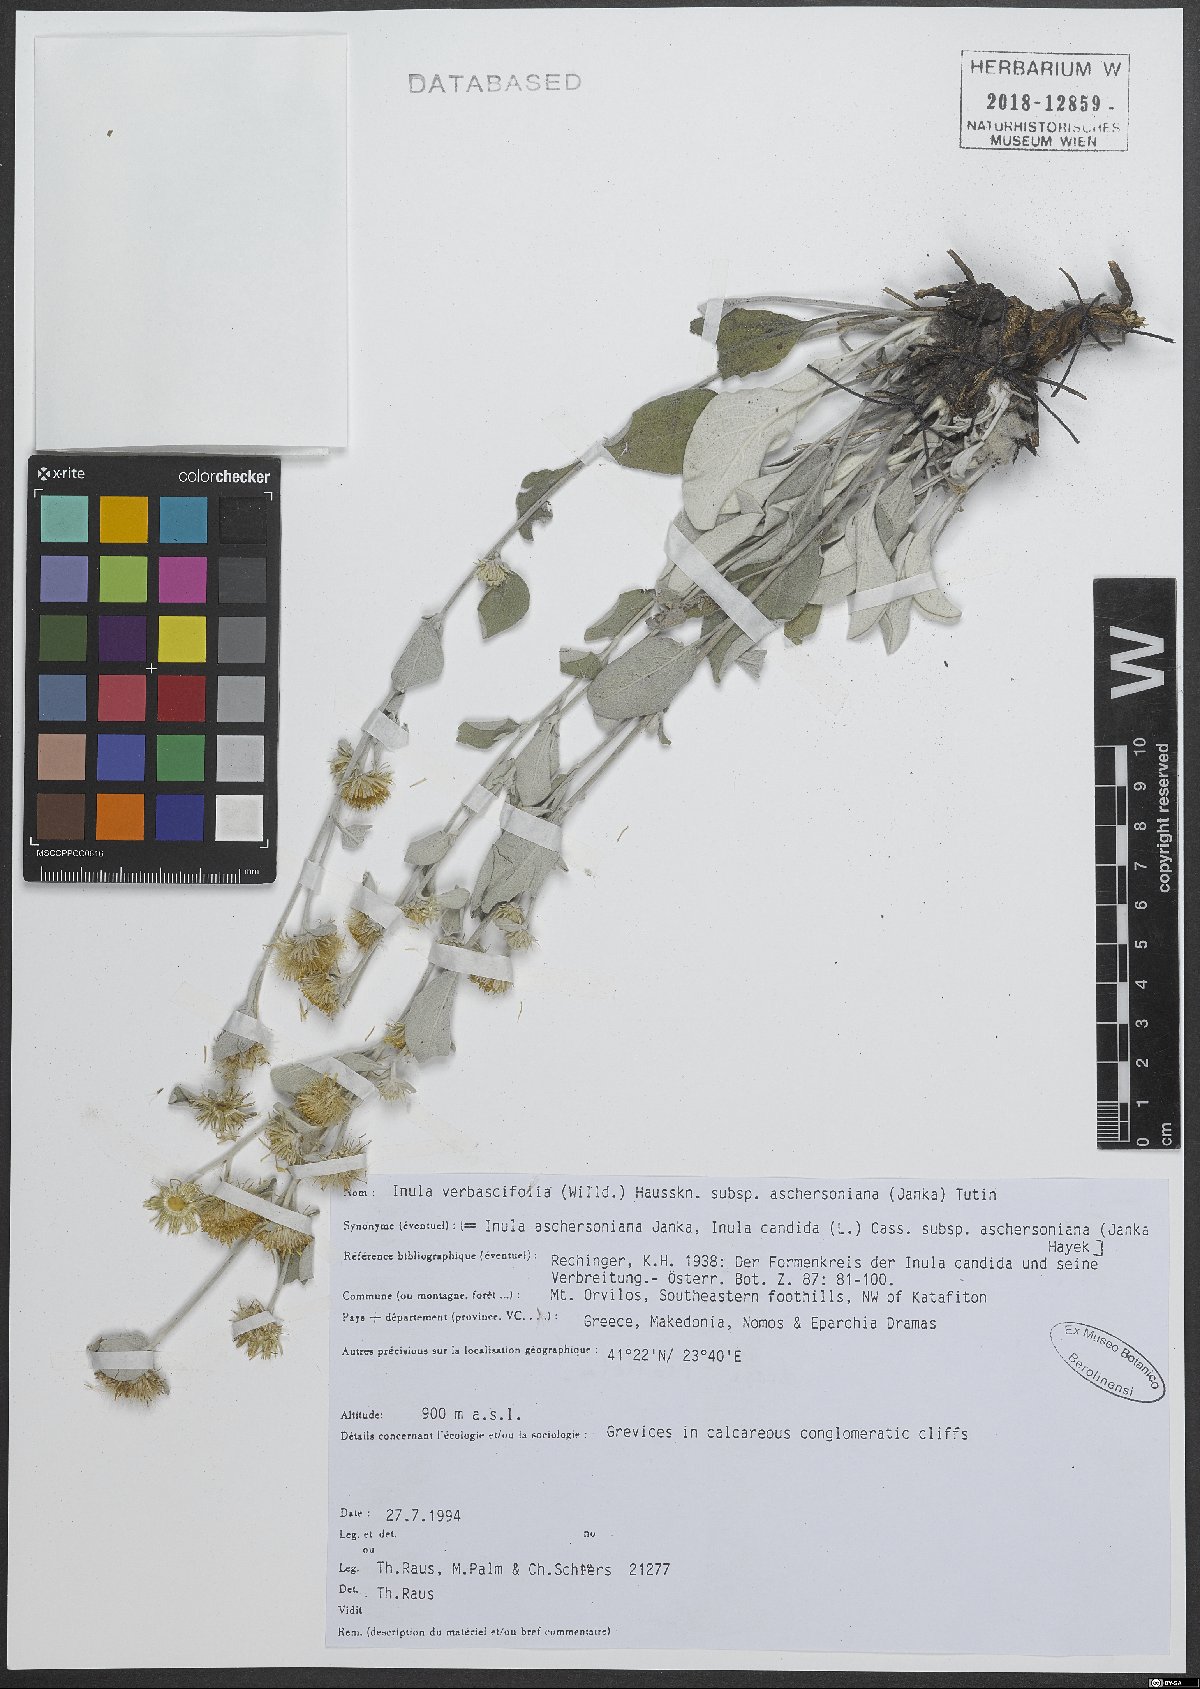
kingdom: Plantae
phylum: Tracheophyta
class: Magnoliopsida
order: Asterales
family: Asteraceae
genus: Pentanema
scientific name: Pentanema verbascifolium
